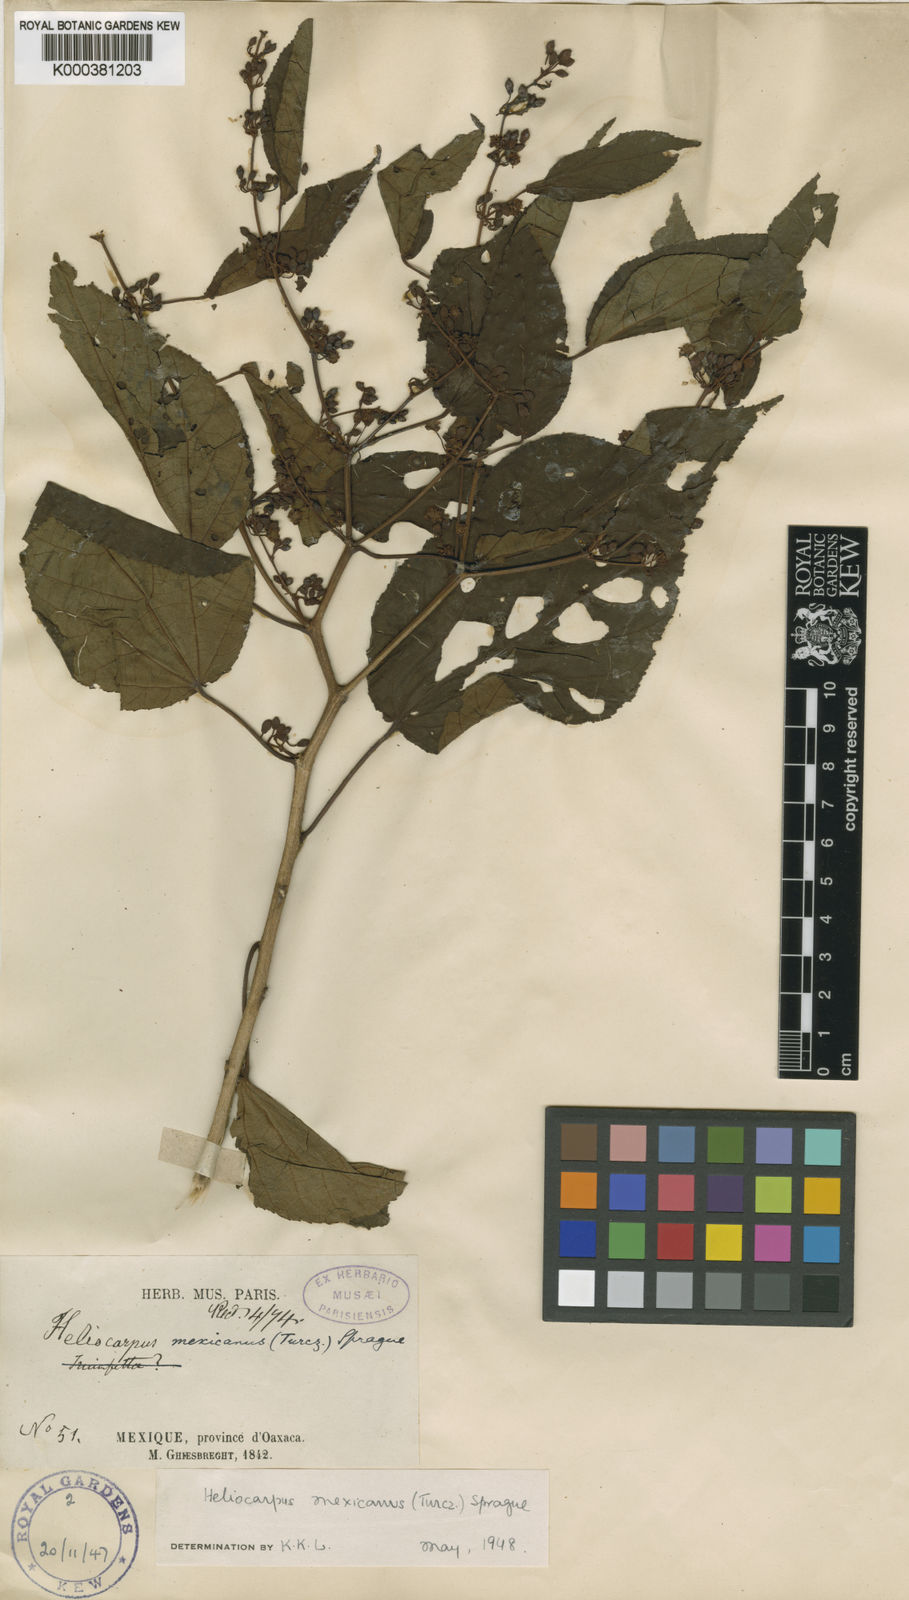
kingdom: Plantae
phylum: Tracheophyta
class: Magnoliopsida
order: Malvales
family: Malvaceae
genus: Heliocarpus
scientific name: Heliocarpus mexicanus
